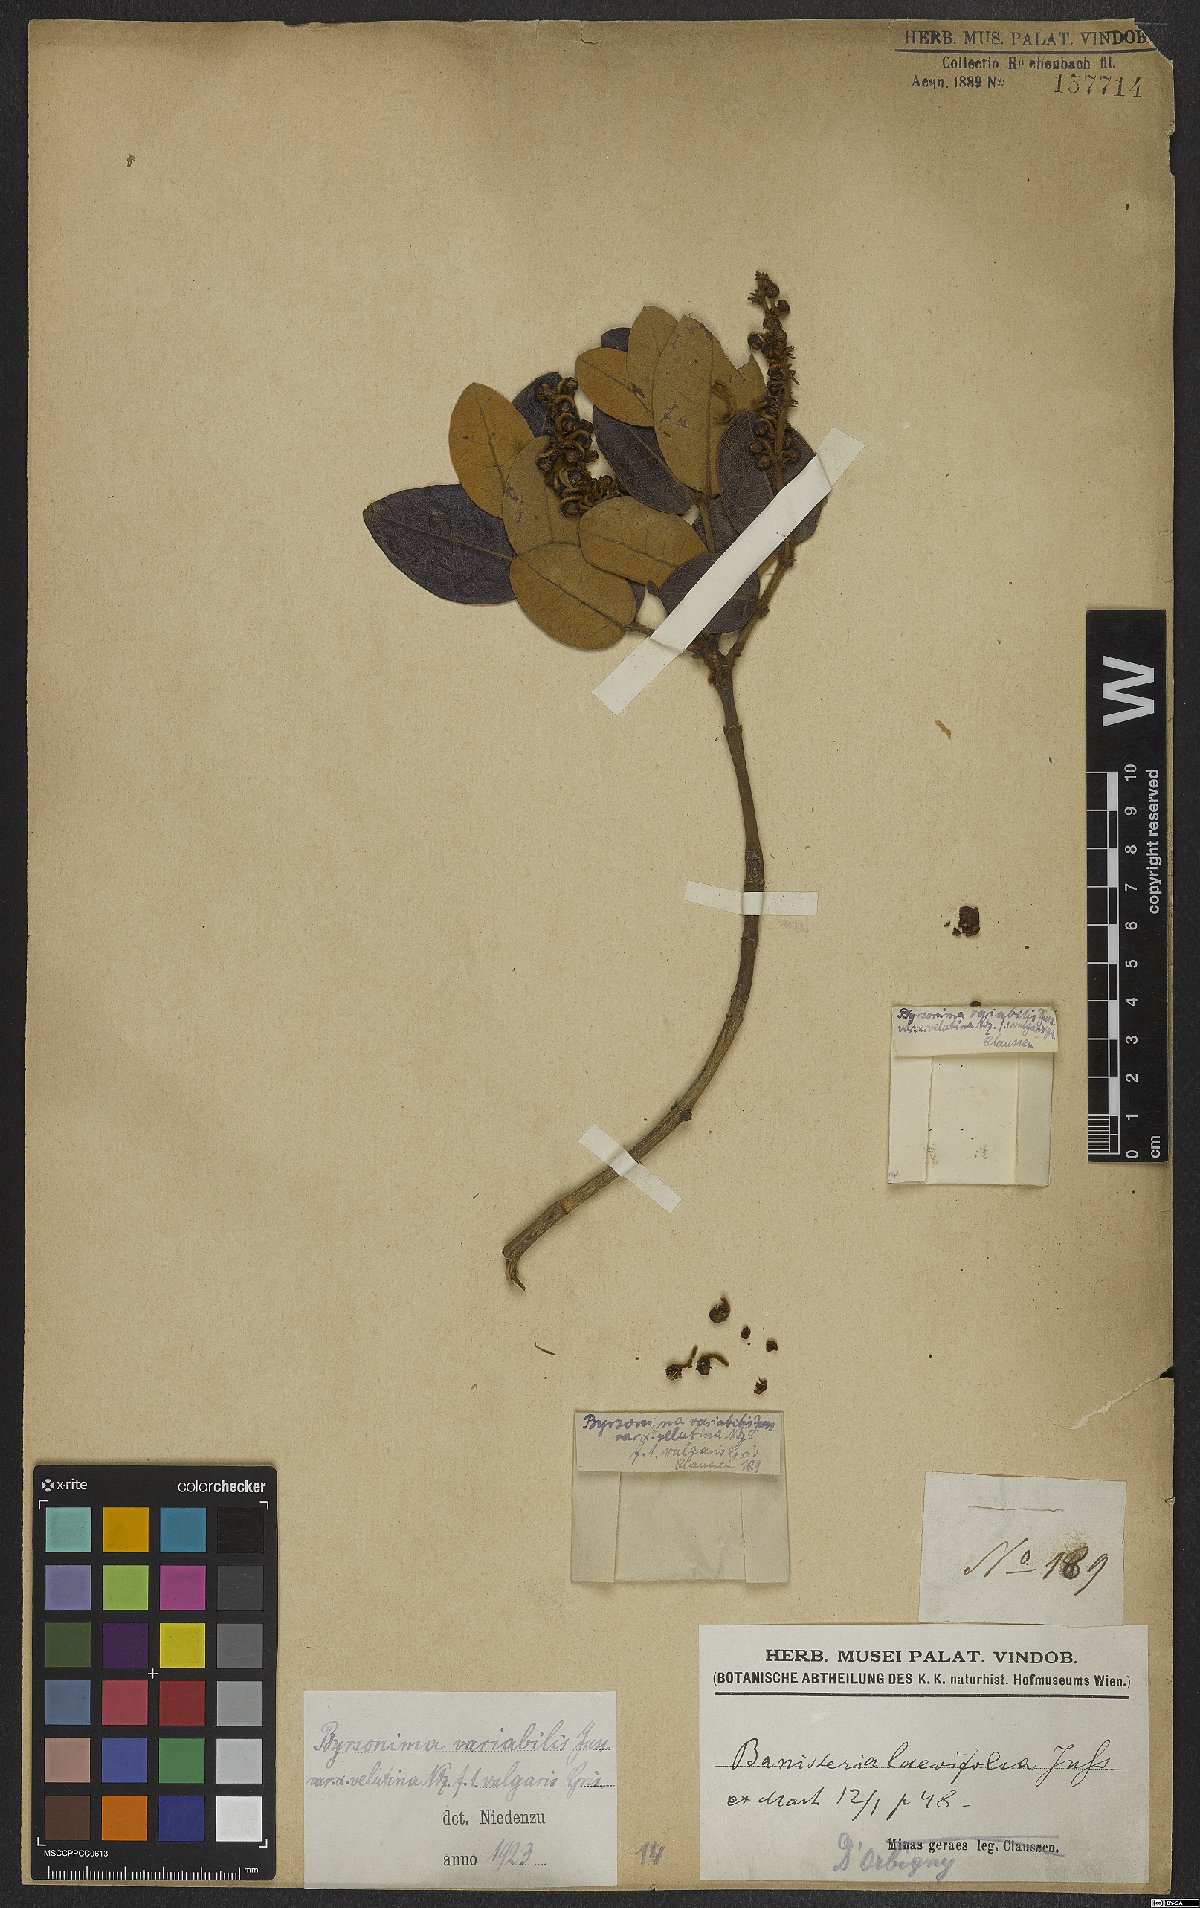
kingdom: Plantae
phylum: Tracheophyta
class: Magnoliopsida
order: Malpighiales
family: Malpighiaceae
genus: Byrsonima
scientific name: Byrsonima variabilis
